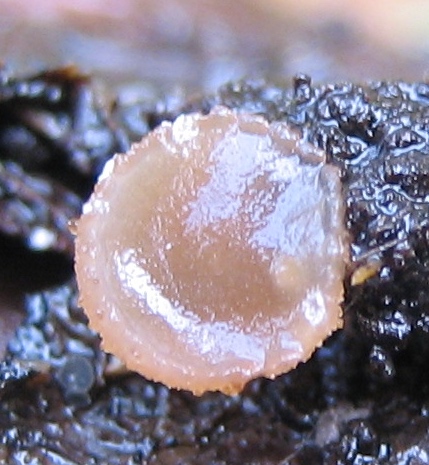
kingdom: Fungi
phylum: Ascomycota
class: Leotiomycetes
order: Helotiales
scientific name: Helotiales
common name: stilkskiveordenen
